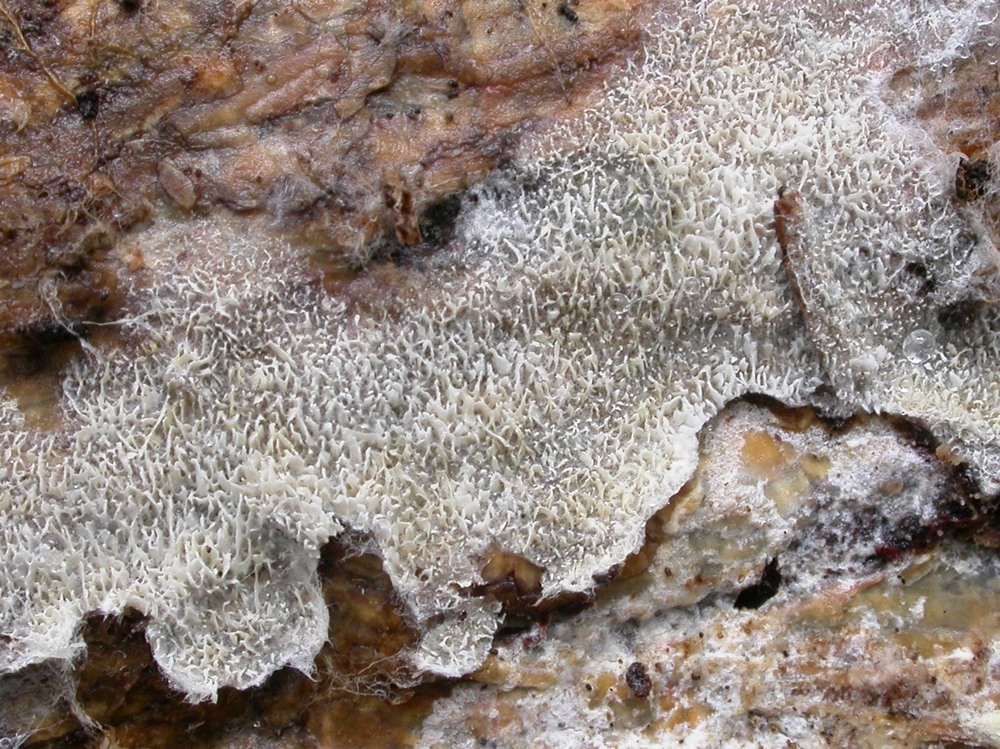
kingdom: Fungi
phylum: Basidiomycota
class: Agaricomycetes
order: Cantharellales
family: Hydnaceae
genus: Sistotrema
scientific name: Sistotrema muscicola
